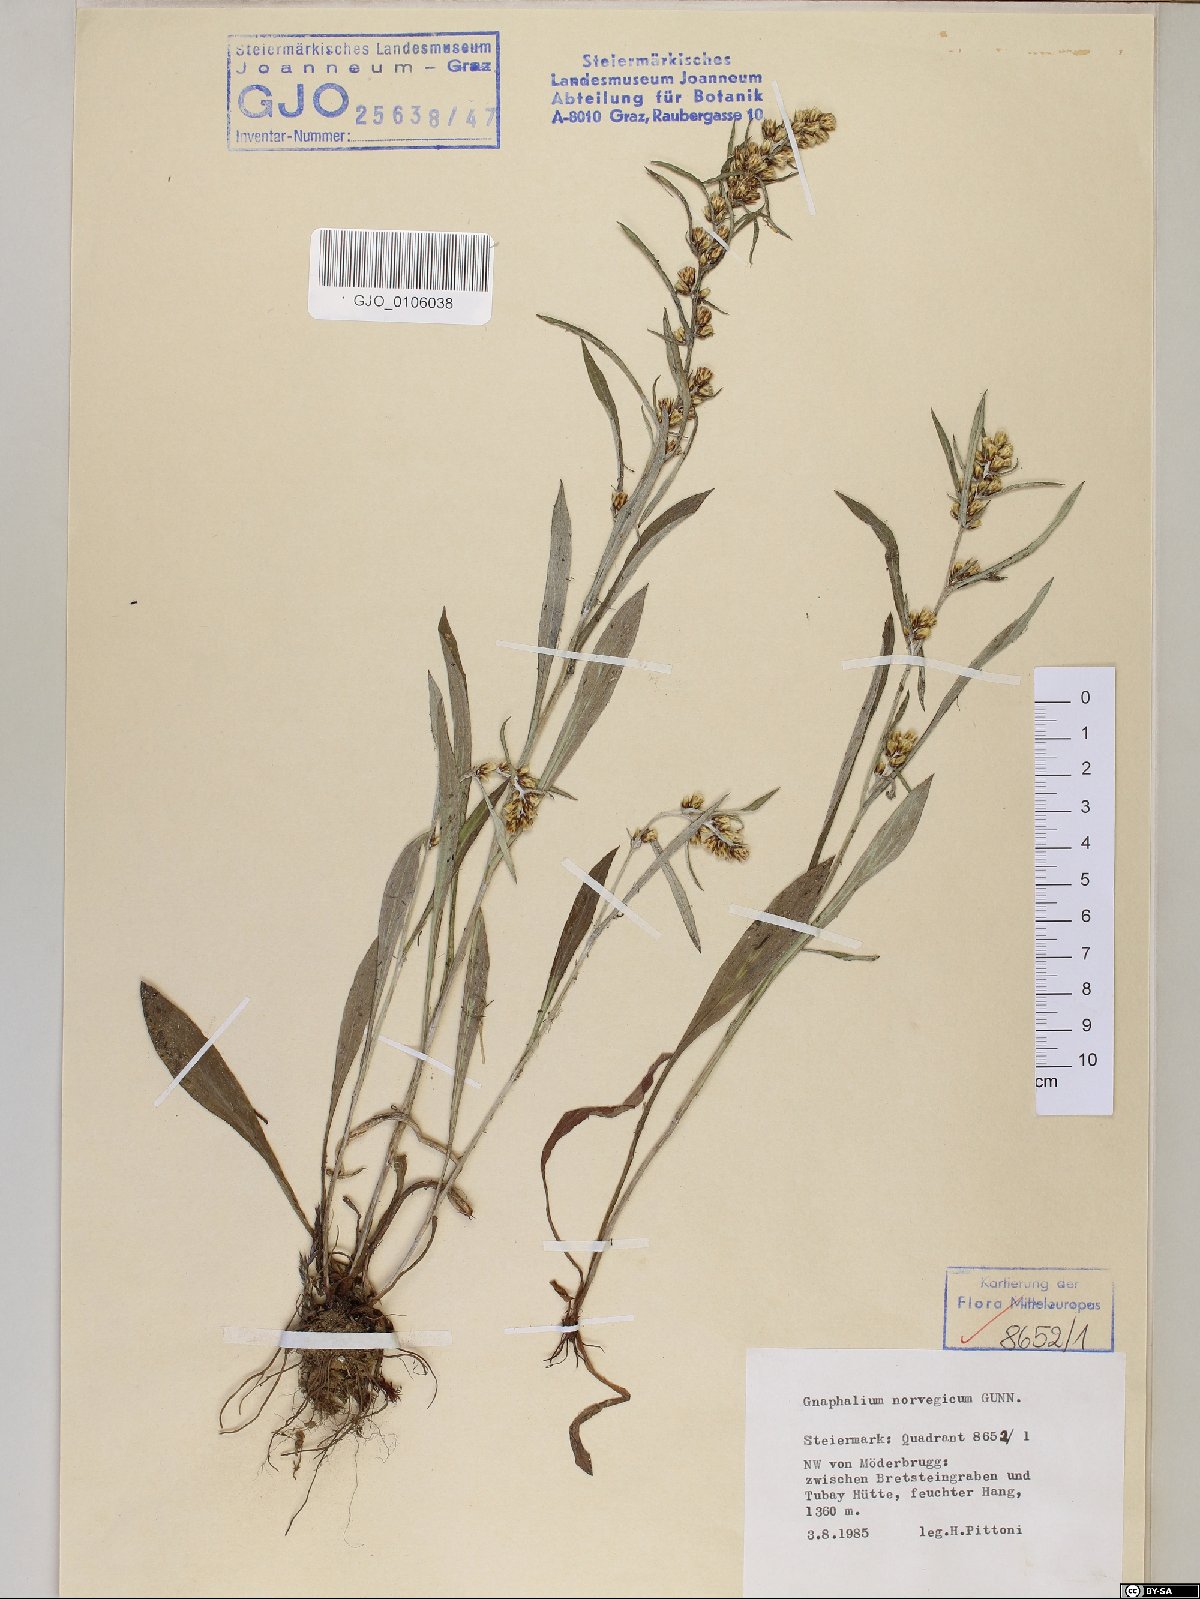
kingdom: Plantae
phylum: Tracheophyta
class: Magnoliopsida
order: Asterales
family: Asteraceae
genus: Omalotheca
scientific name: Omalotheca norvegica
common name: Norwegian arctic-cudweed
